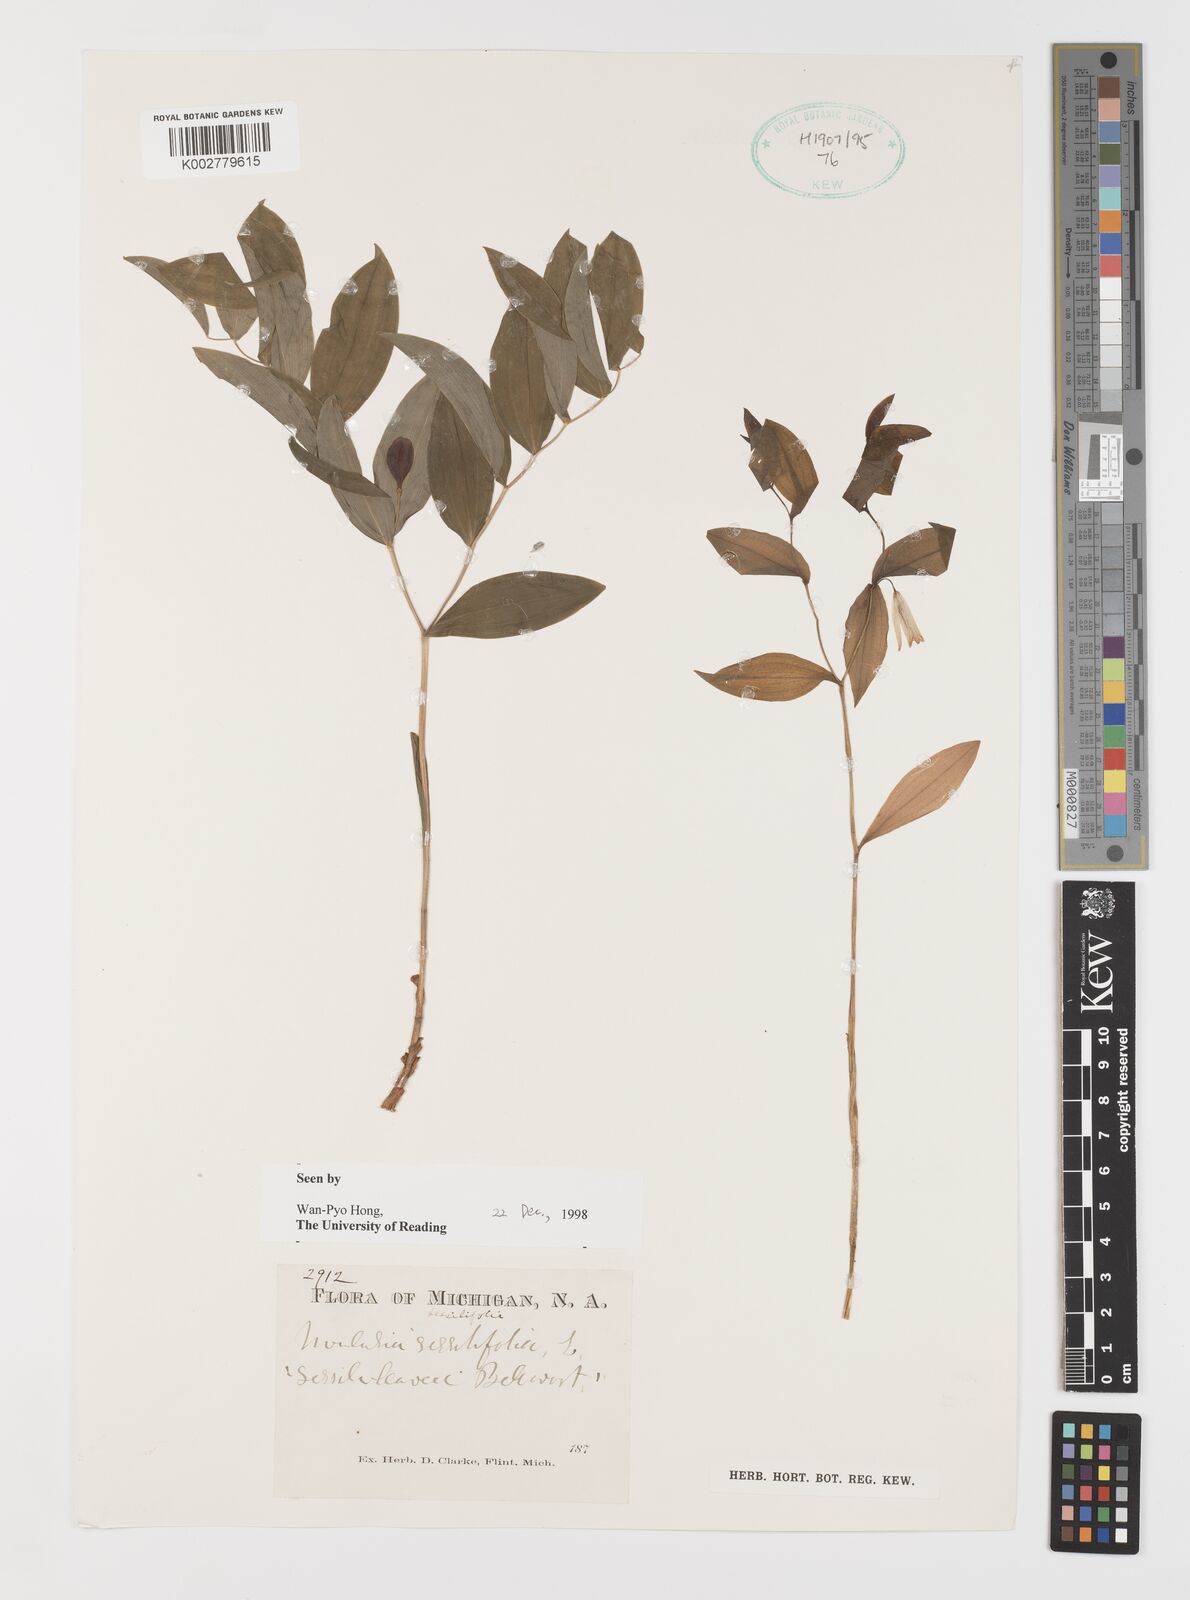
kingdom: Plantae
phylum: Tracheophyta
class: Liliopsida
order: Liliales
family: Colchicaceae
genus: Uvularia
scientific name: Uvularia sessilifolia
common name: Straw-lily
